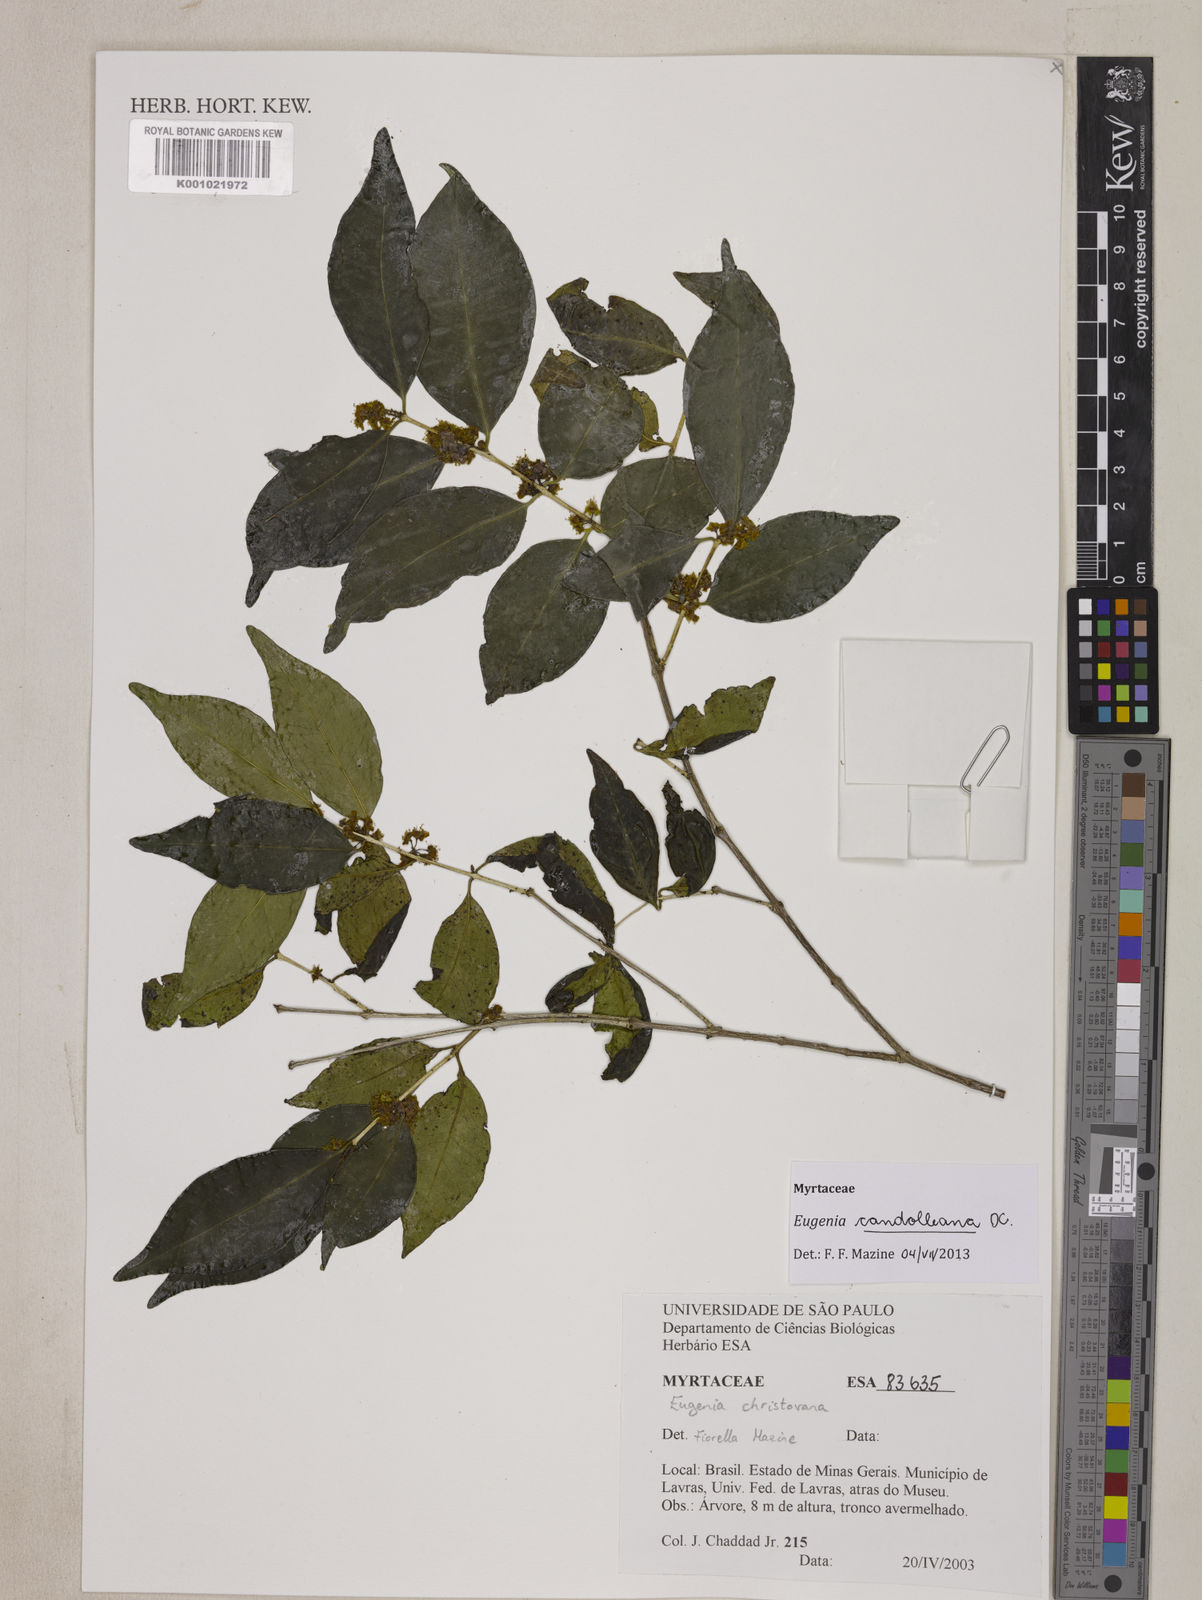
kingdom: Plantae
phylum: Tracheophyta
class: Magnoliopsida
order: Myrtales
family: Myrtaceae
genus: Eugenia
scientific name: Eugenia candolleana
